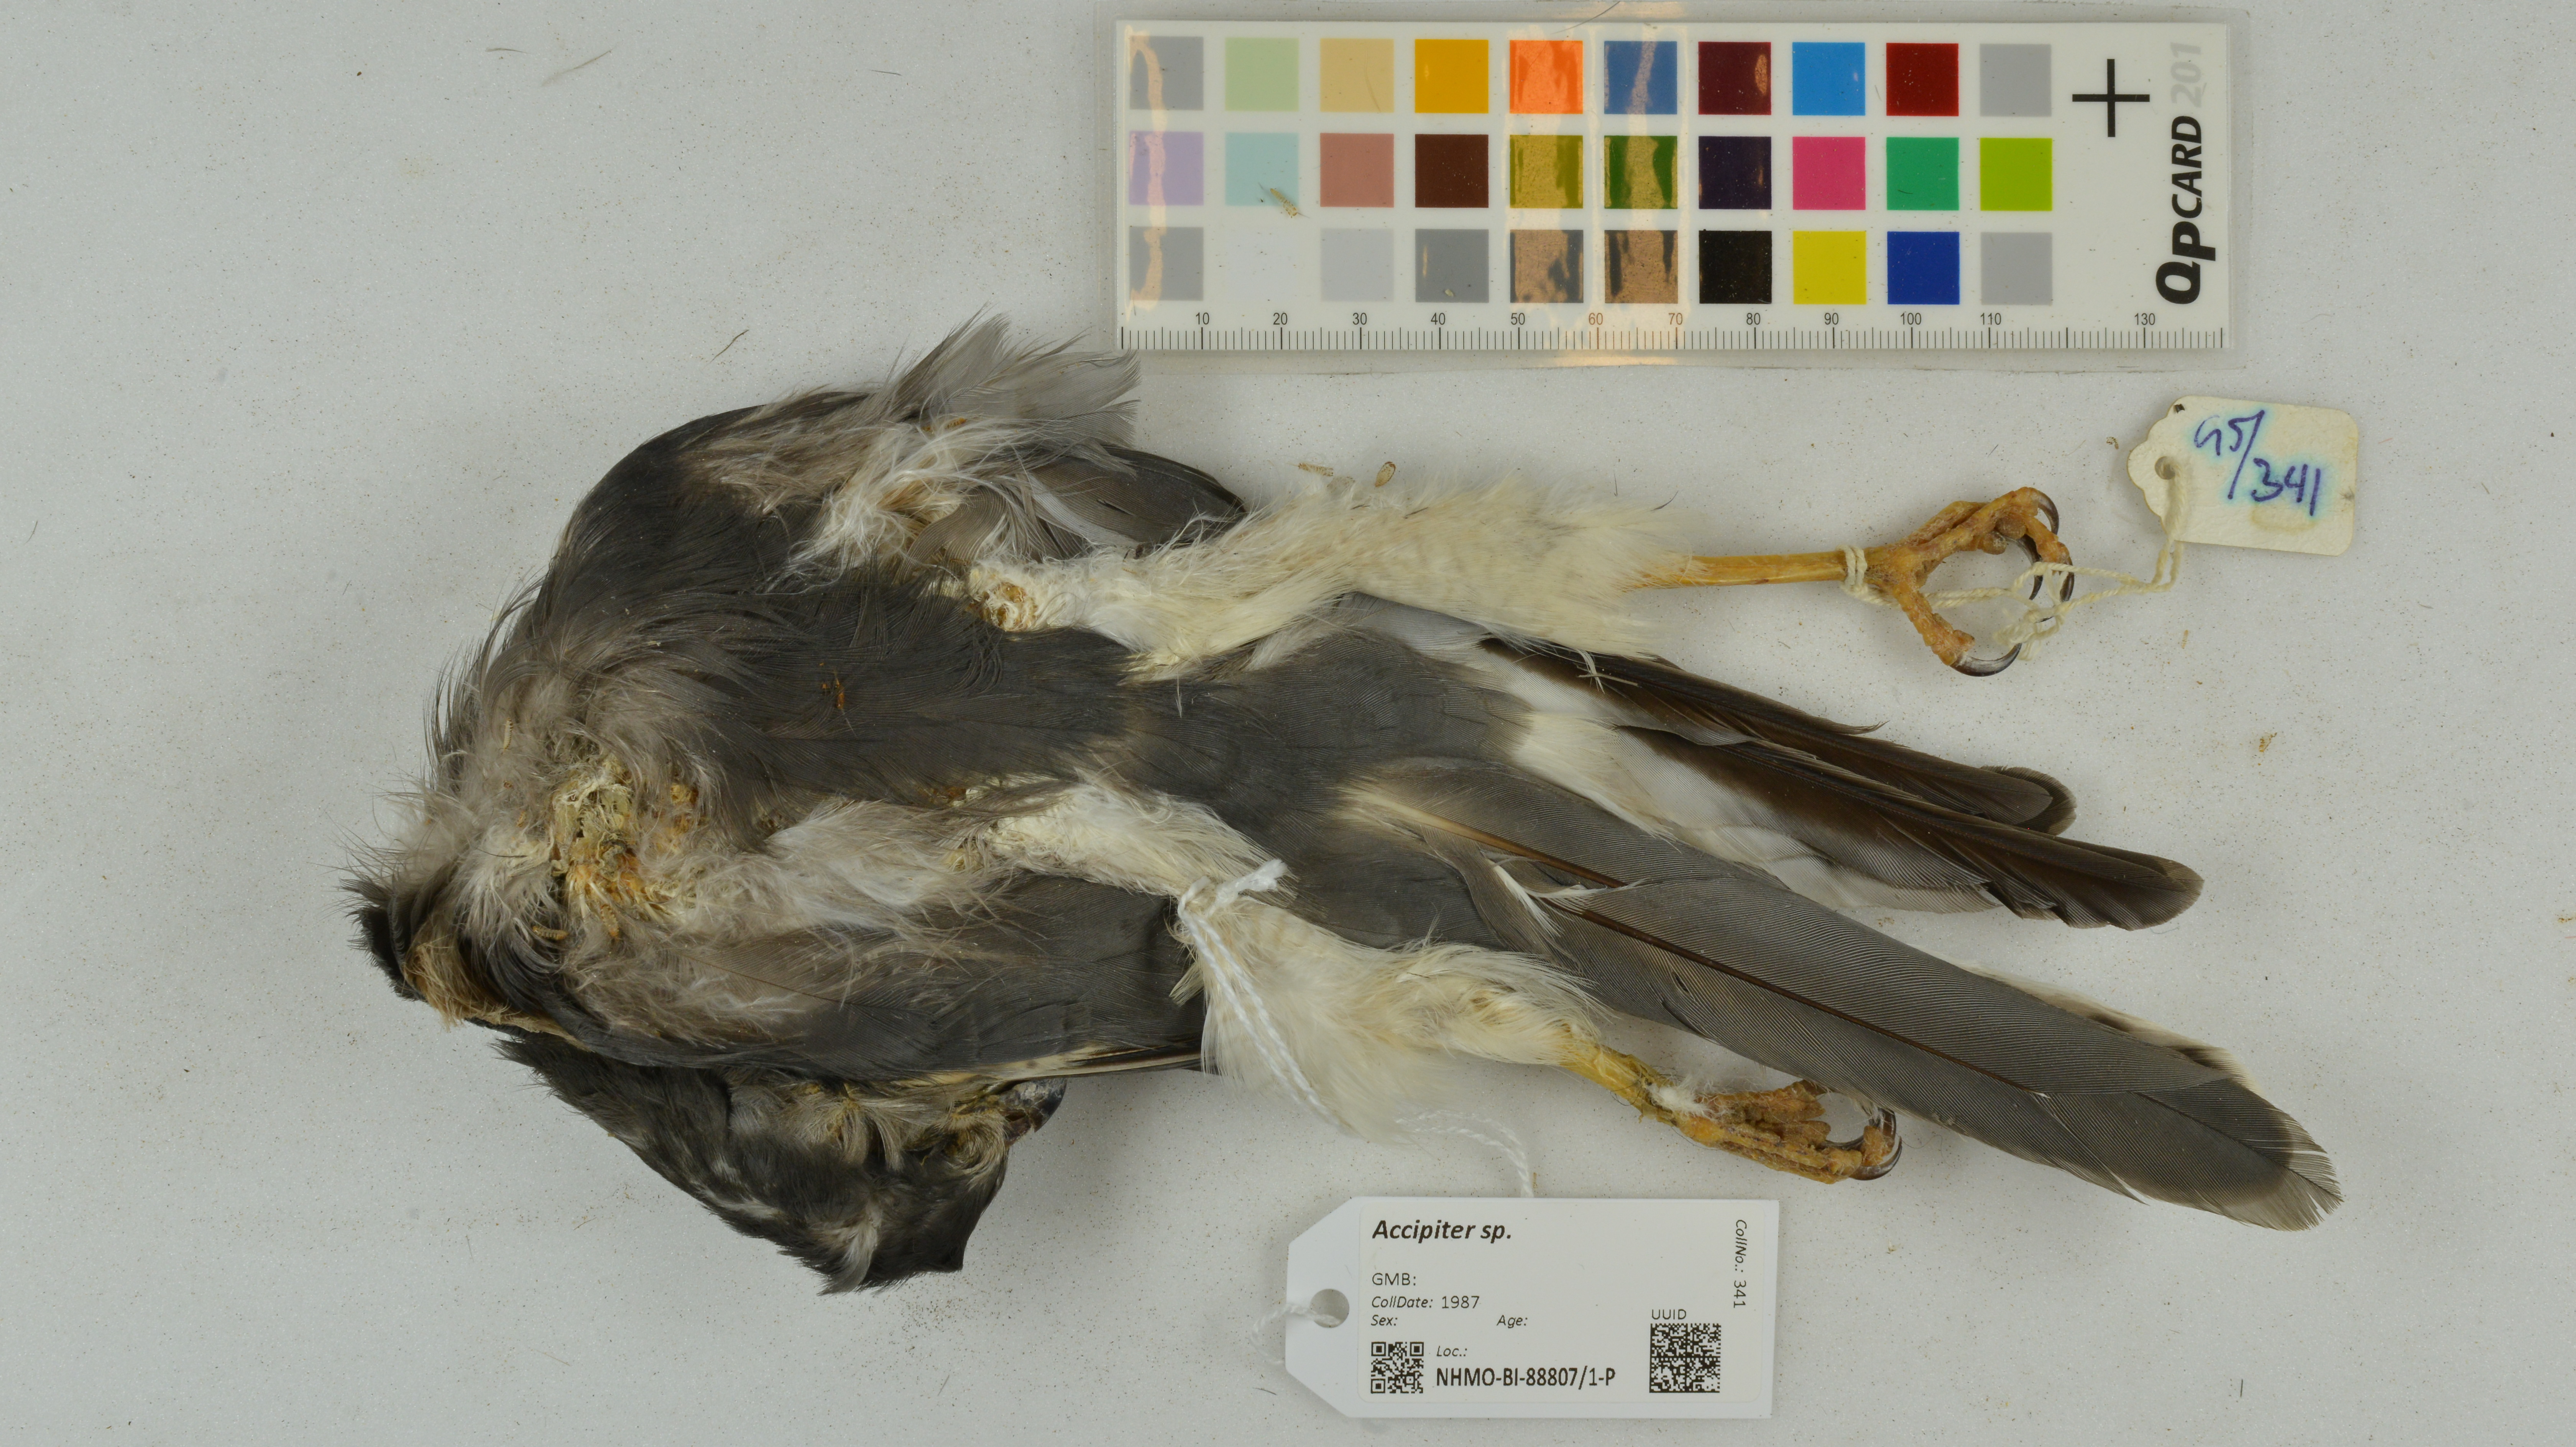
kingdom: Animalia
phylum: Chordata
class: Aves
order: Accipitriformes
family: Accipitridae
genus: Accipiter
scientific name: Accipiter
